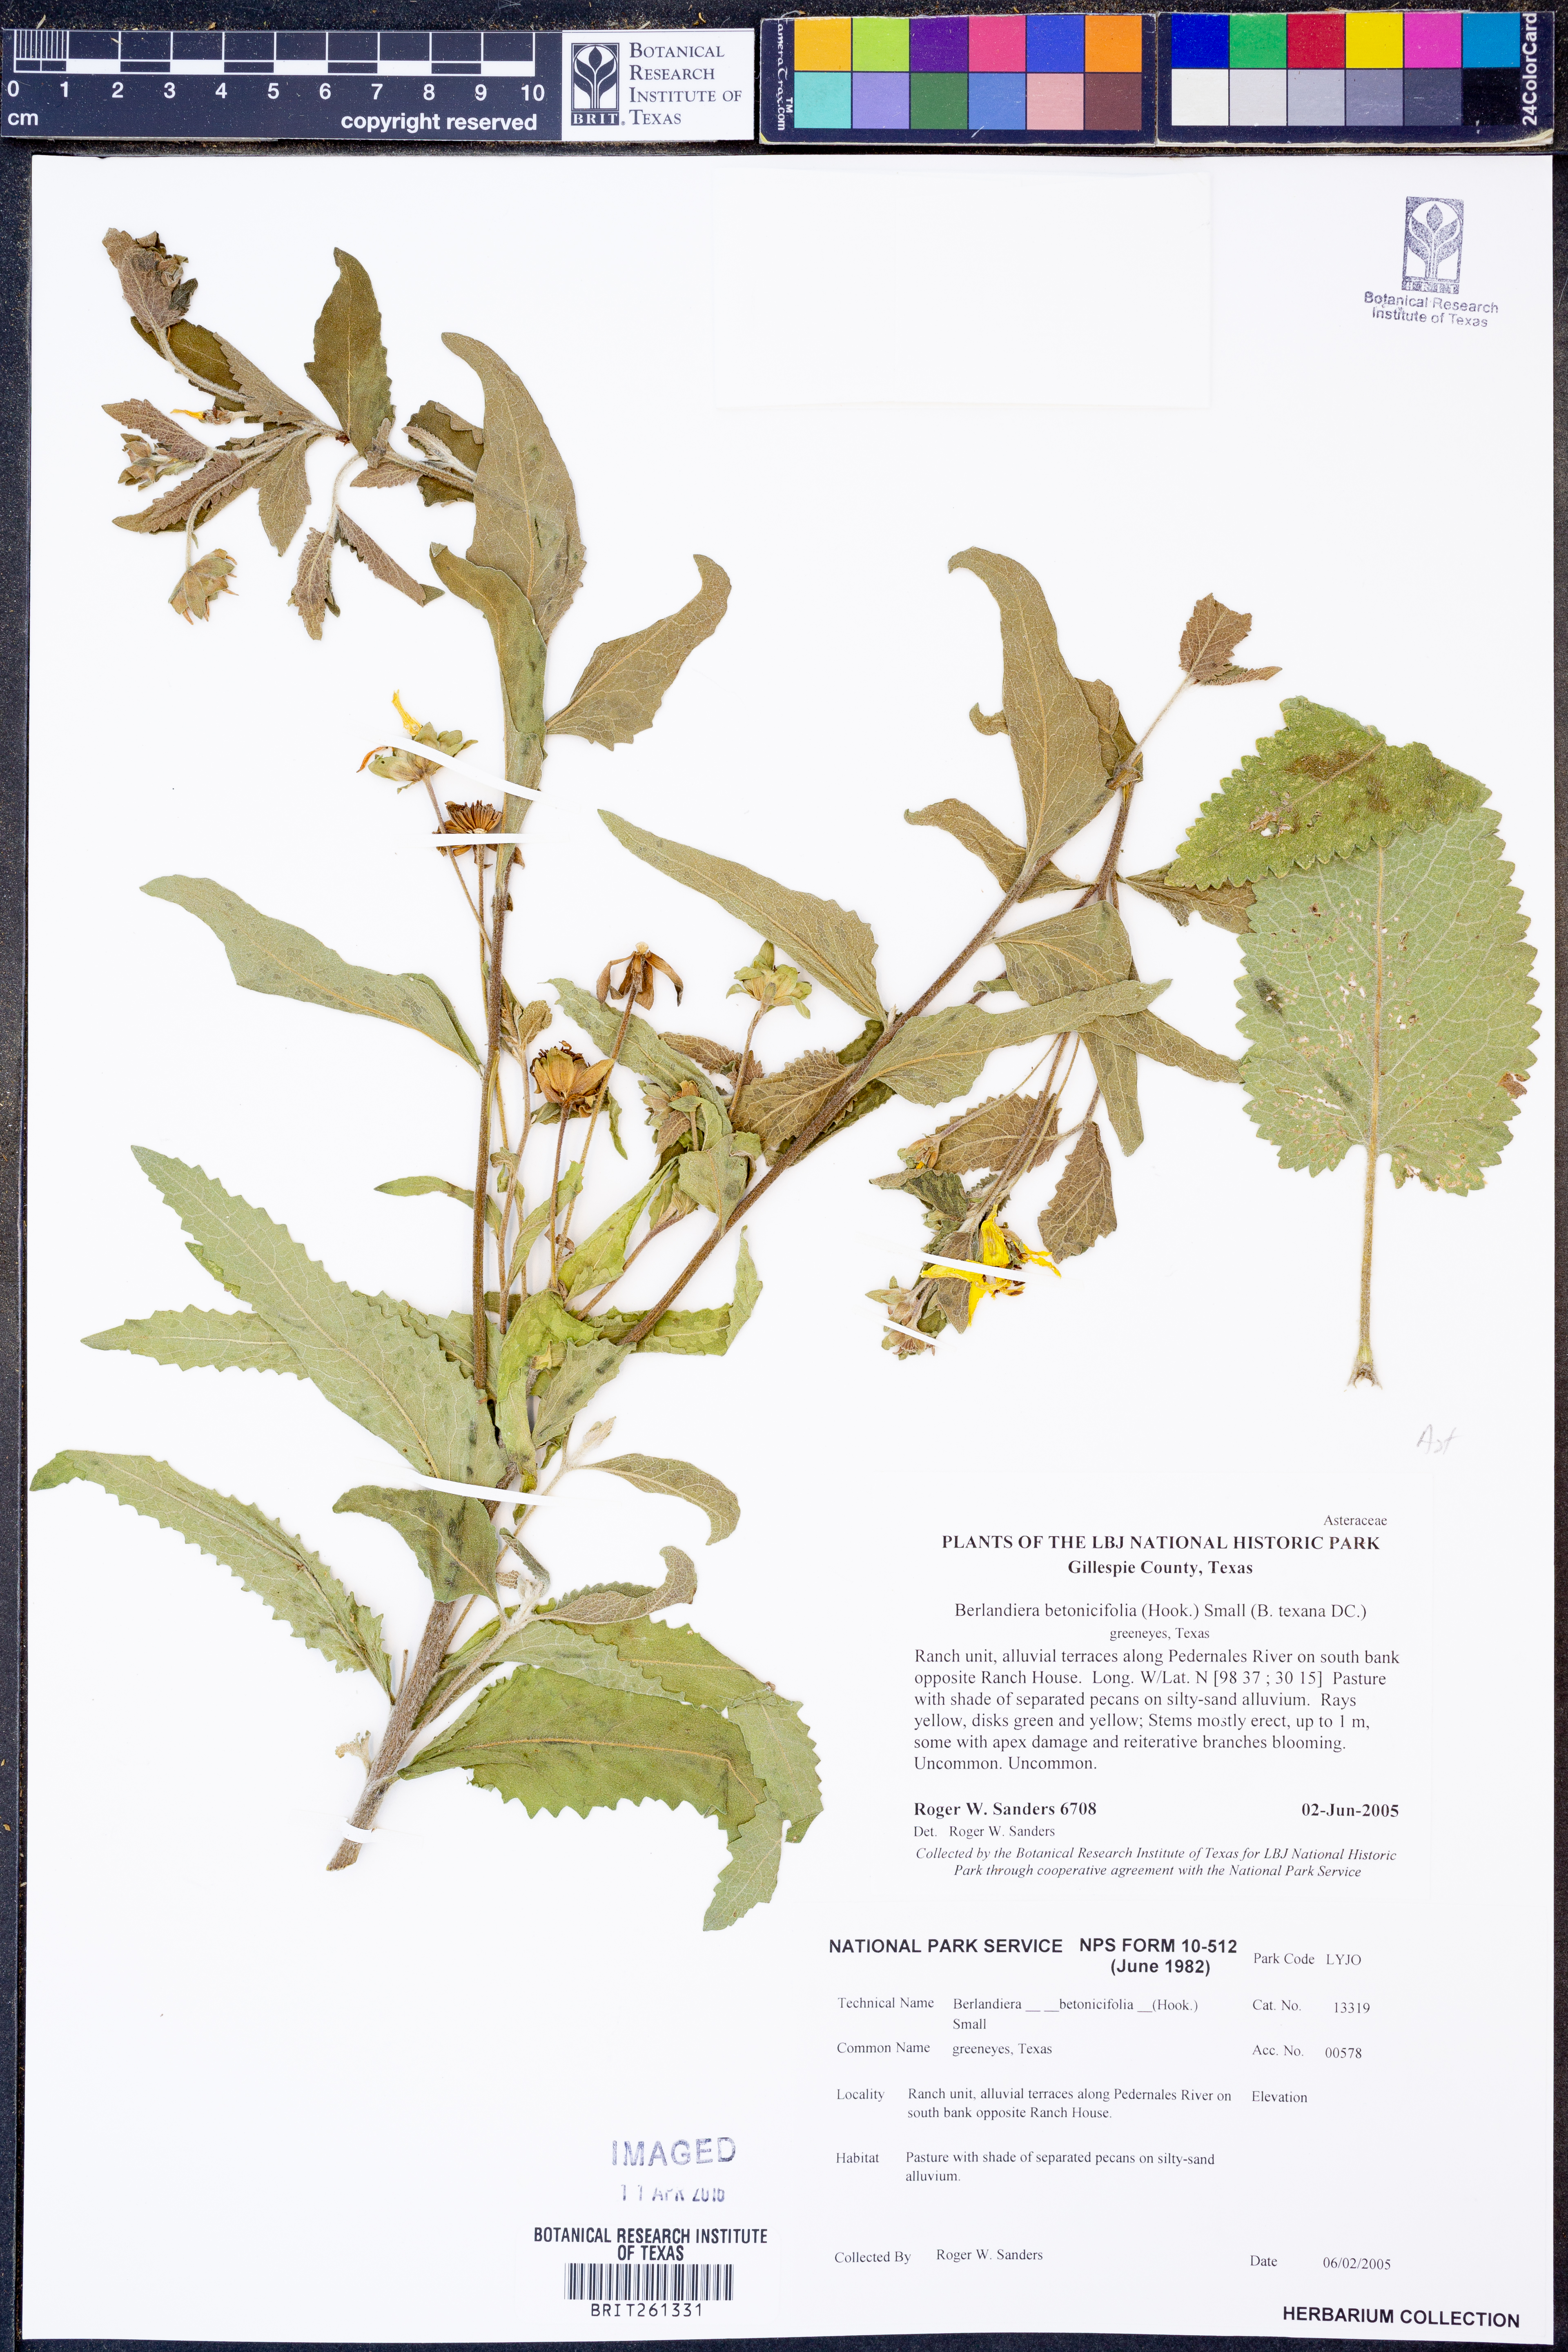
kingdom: Plantae
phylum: Tracheophyta
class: Magnoliopsida
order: Asterales
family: Asteraceae
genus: Berlandiera
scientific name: Berlandiera betonicifolia
